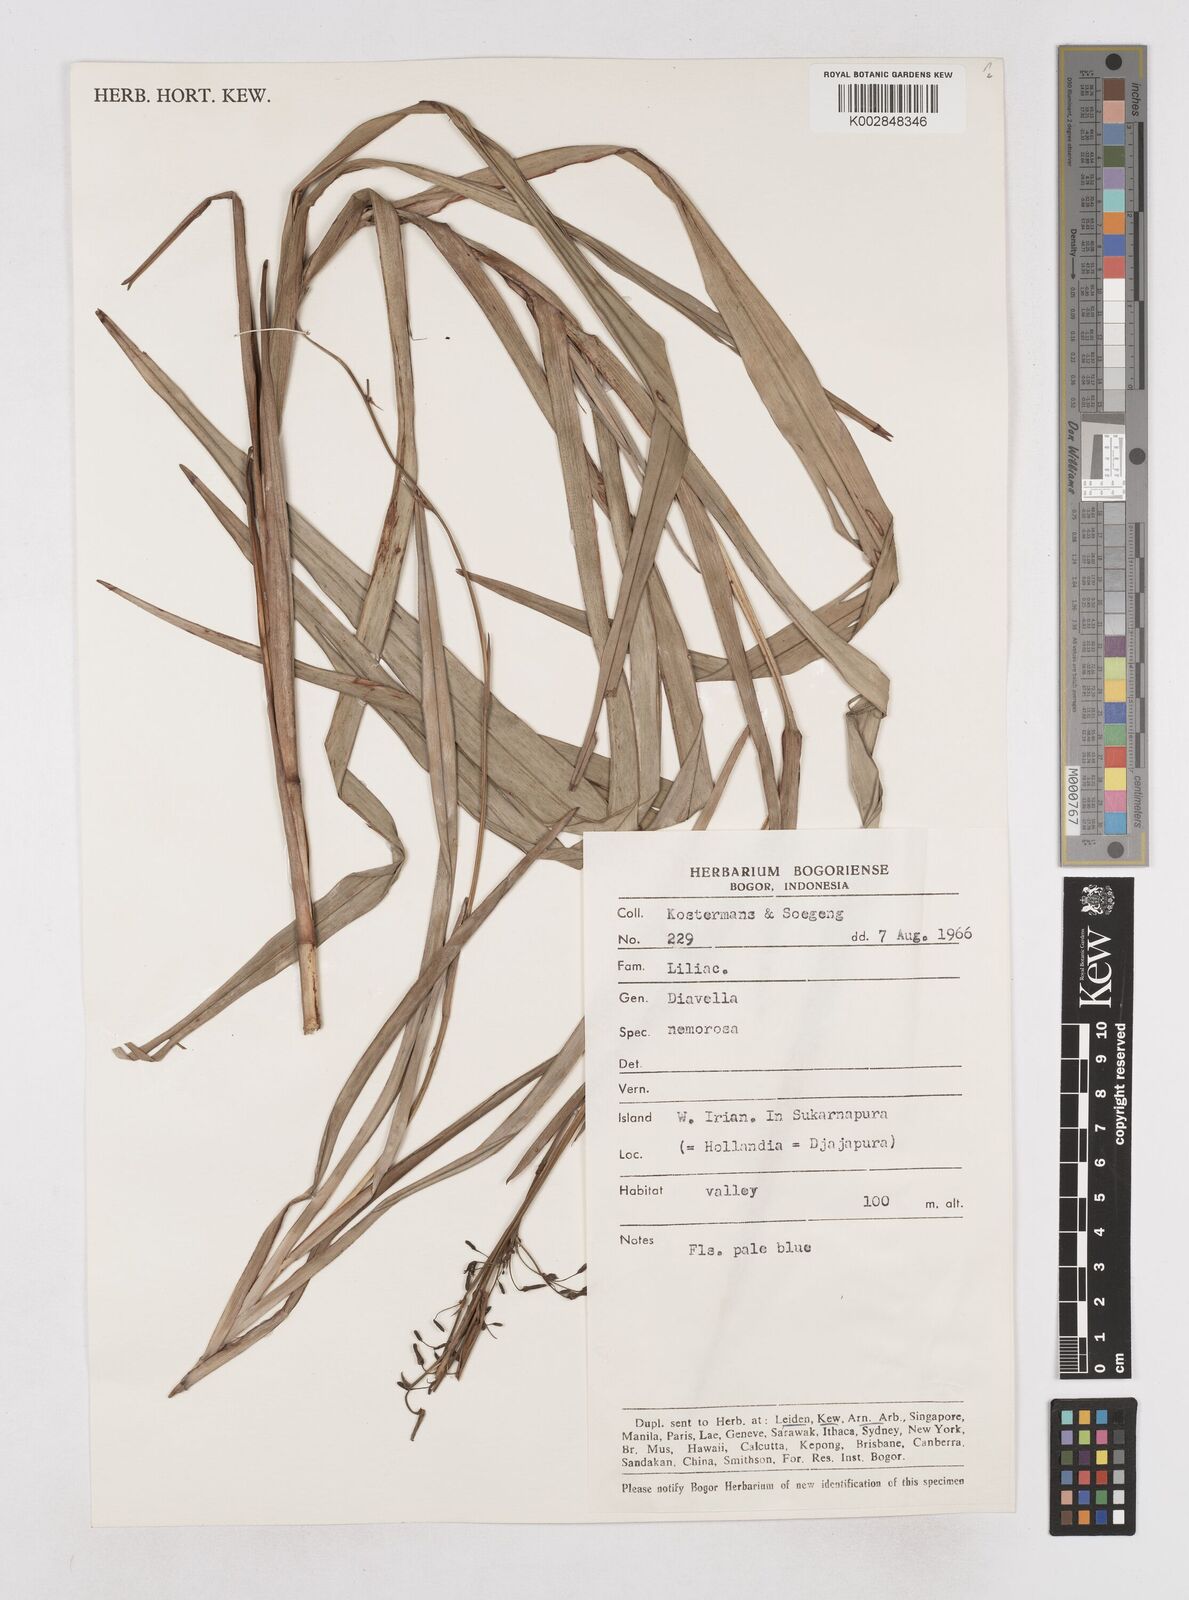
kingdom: Plantae
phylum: Tracheophyta
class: Liliopsida
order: Asparagales
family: Asphodelaceae
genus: Dianella
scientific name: Dianella ensifolia
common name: New zealand lilyplant
